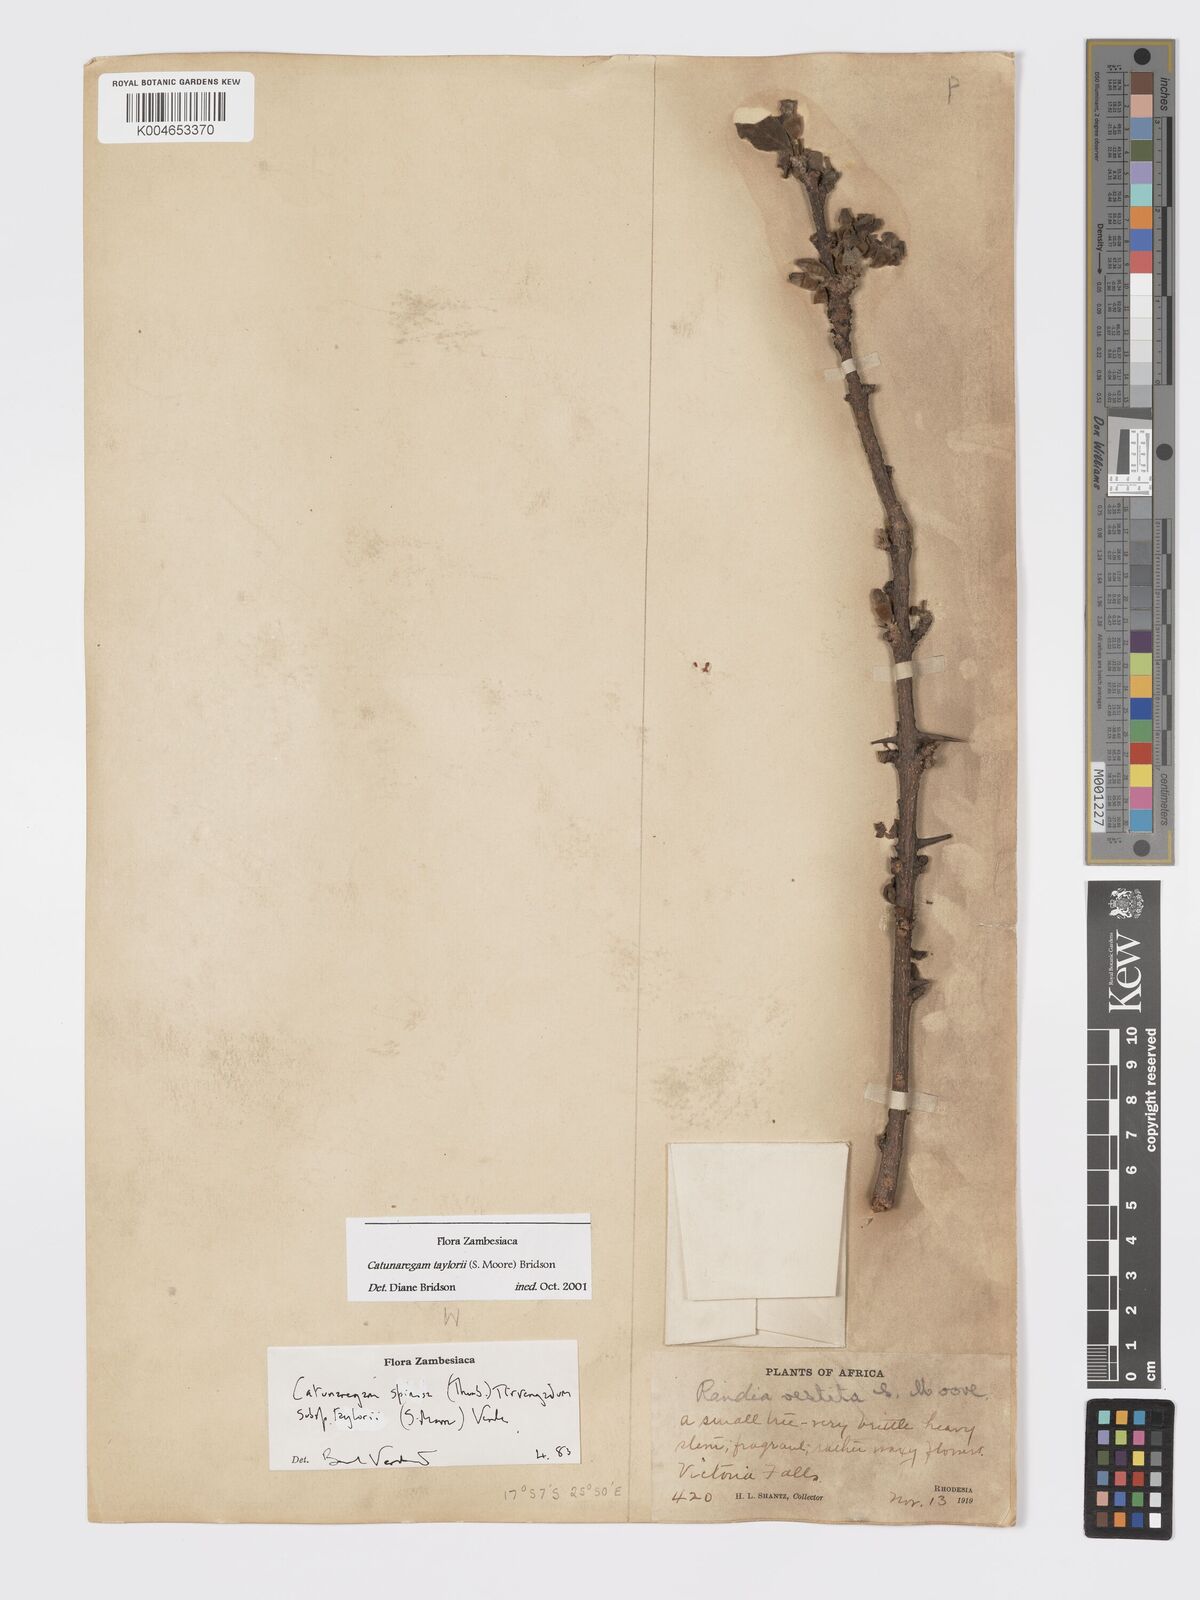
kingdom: Plantae
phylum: Tracheophyta
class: Magnoliopsida
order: Gentianales
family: Rubiaceae
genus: Catunaregam
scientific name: Catunaregam
